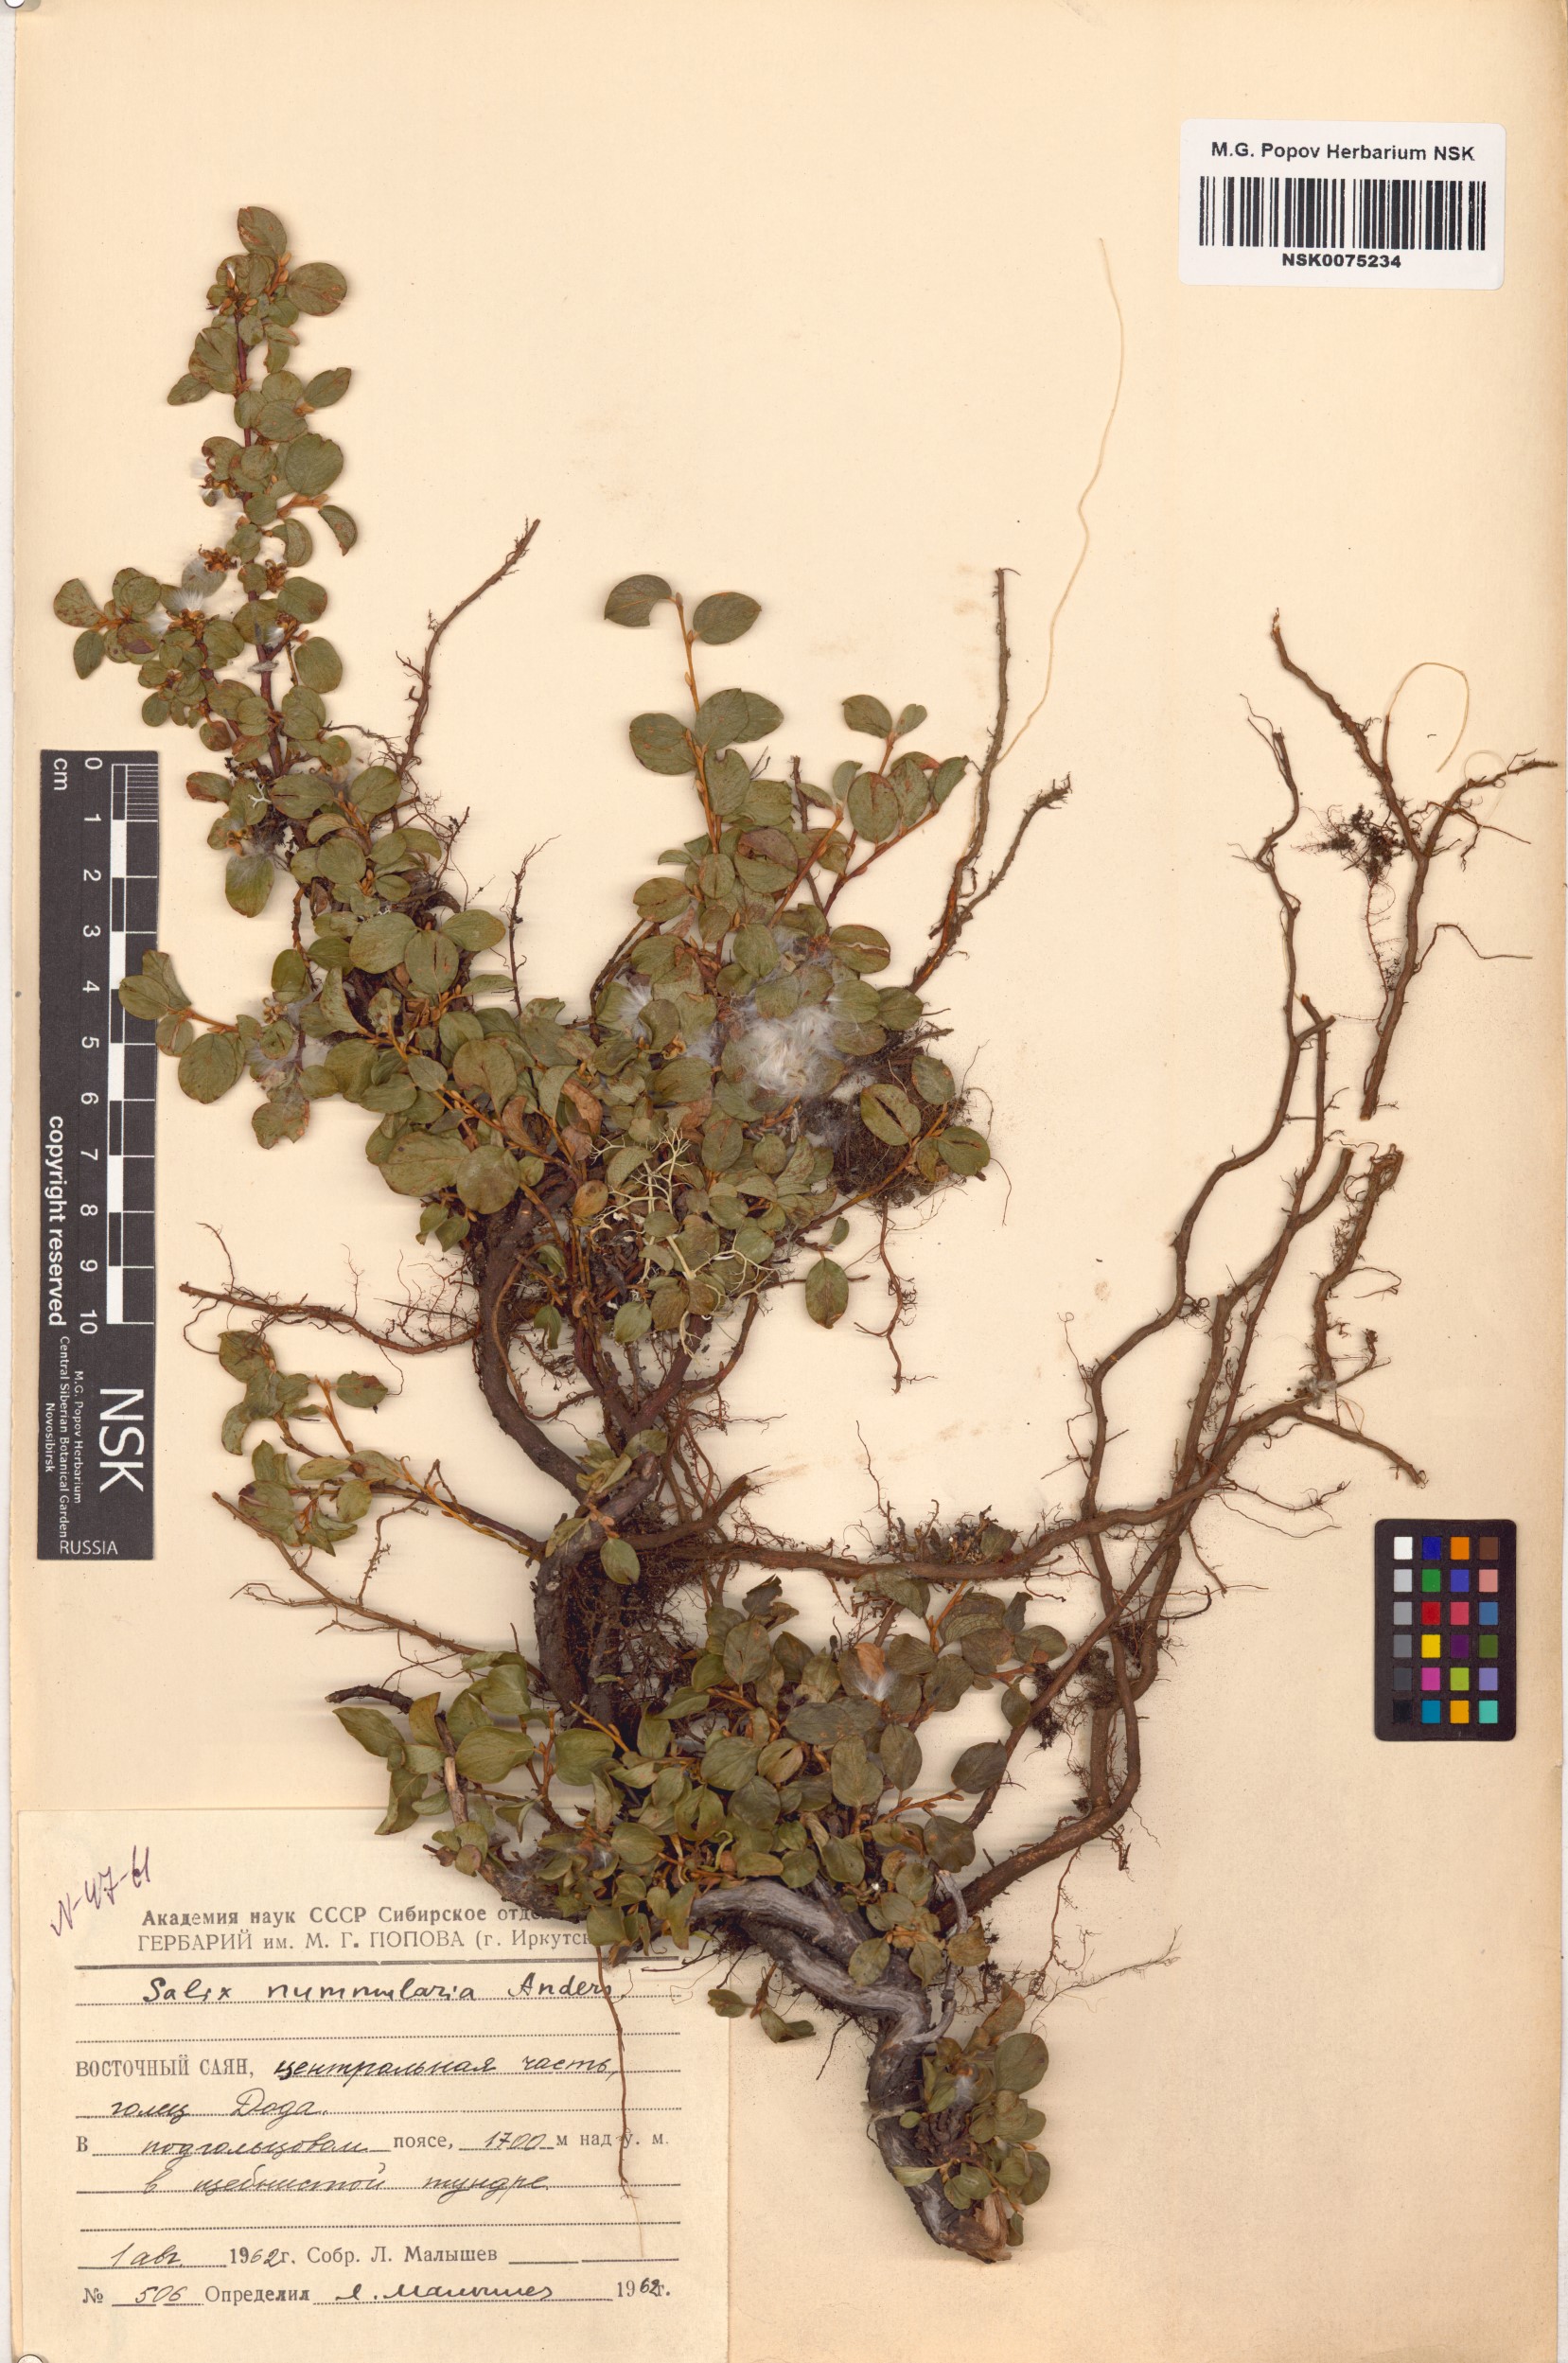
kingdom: Plantae
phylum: Tracheophyta
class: Magnoliopsida
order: Malpighiales
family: Salicaceae
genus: Salix
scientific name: Salix nummularia
